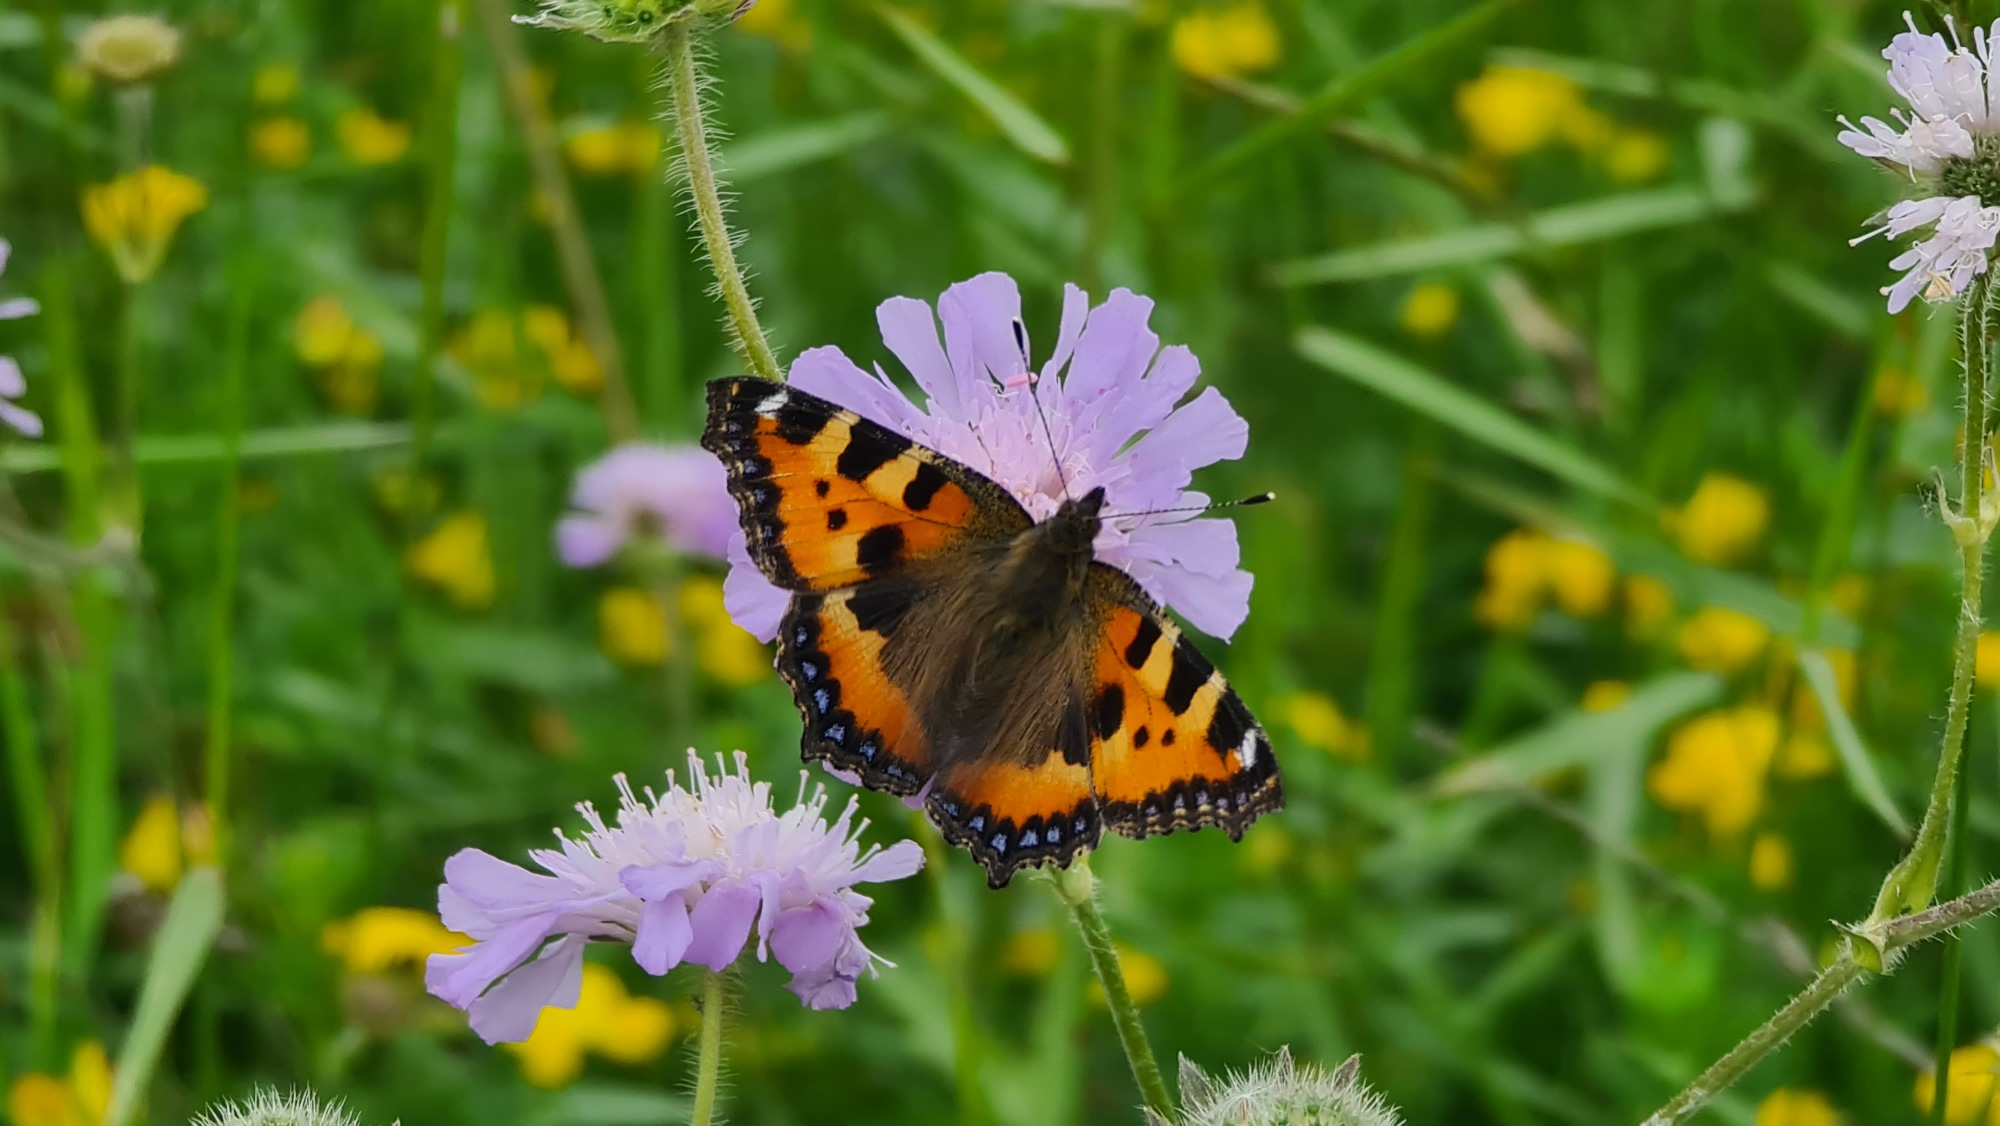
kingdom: Animalia
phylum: Arthropoda
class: Insecta
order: Lepidoptera
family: Nymphalidae
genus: Aglais
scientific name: Aglais urticae
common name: Nældens takvinge
